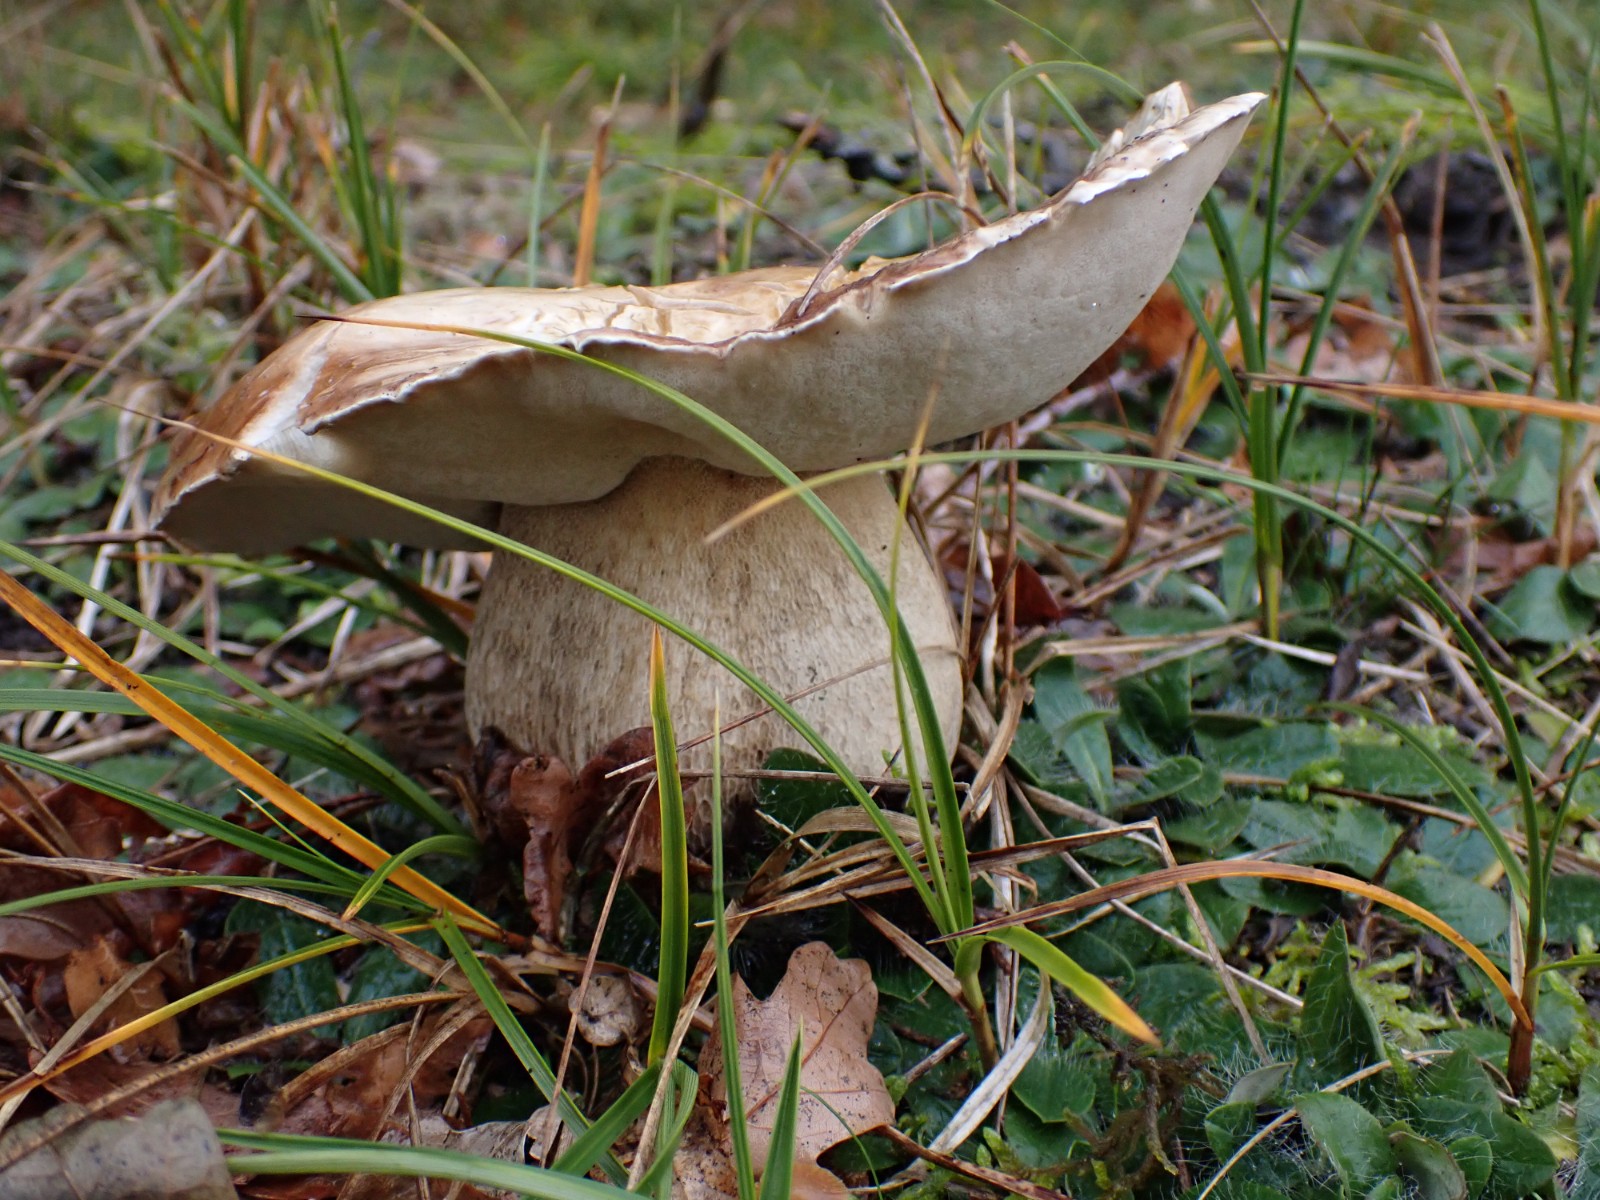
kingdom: Fungi
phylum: Basidiomycota
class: Agaricomycetes
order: Boletales
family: Boletaceae
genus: Boletus
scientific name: Boletus edulis
